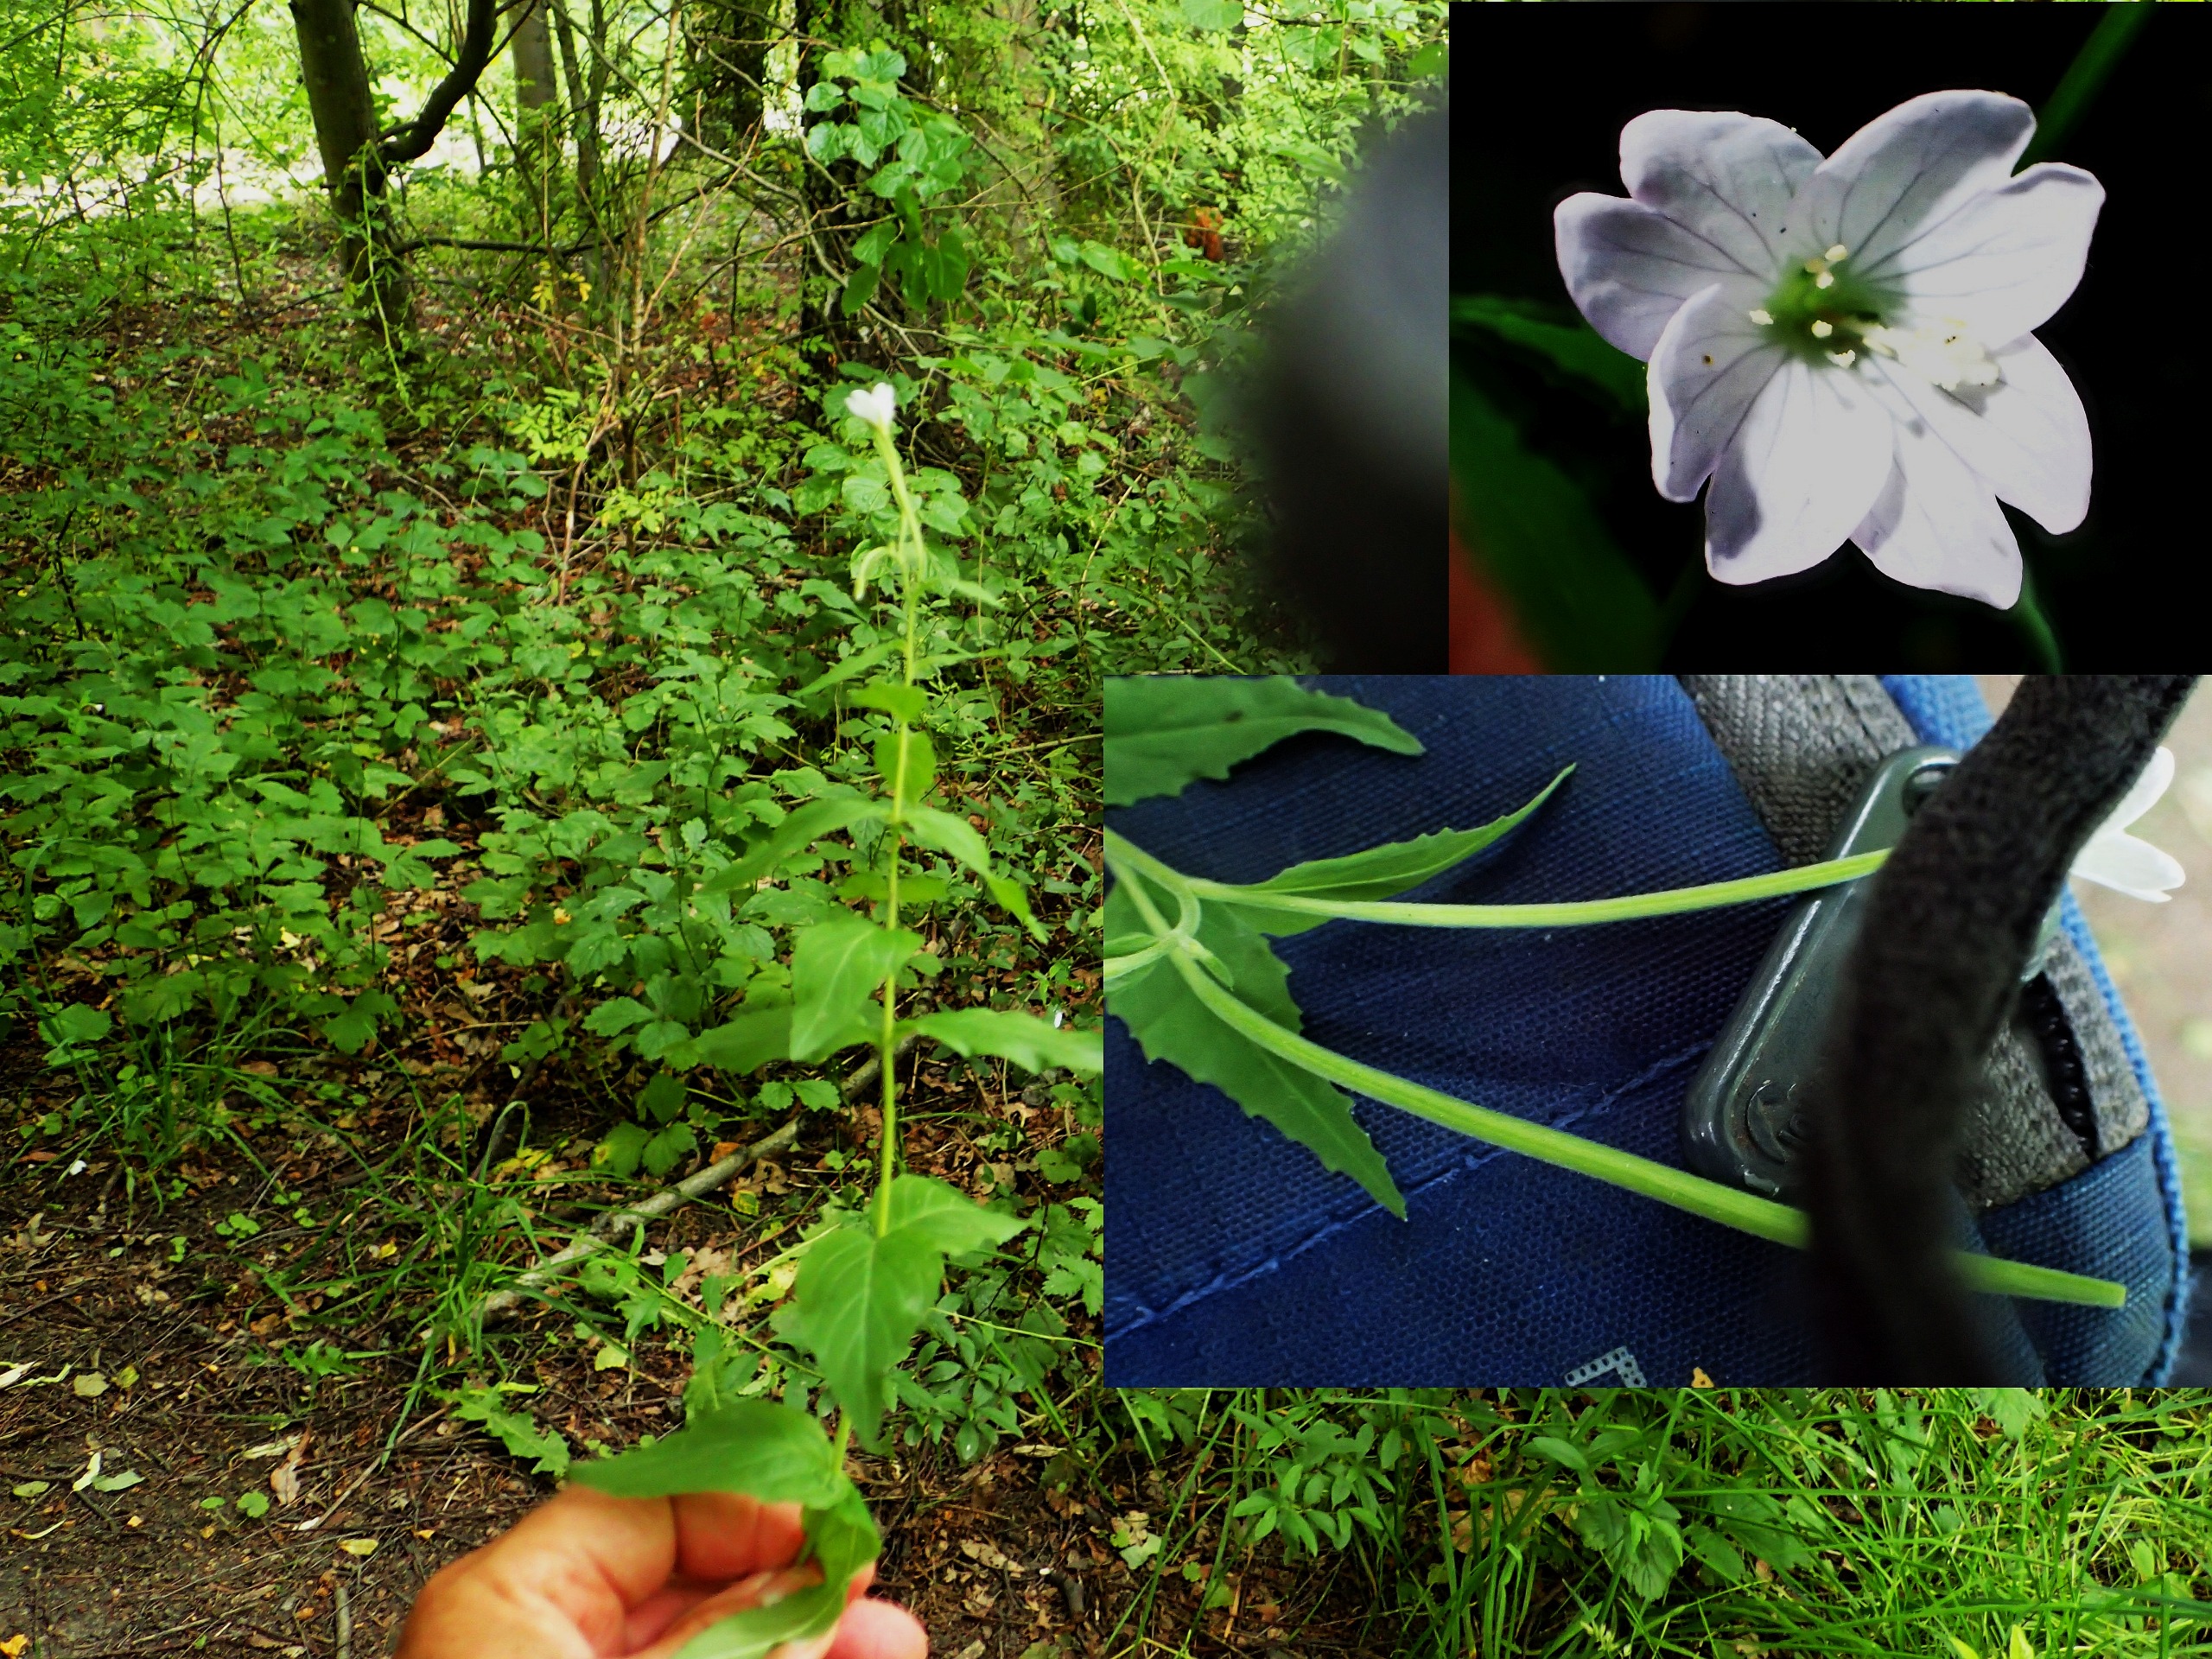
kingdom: Plantae
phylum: Tracheophyta
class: Magnoliopsida
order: Myrtales
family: Onagraceae
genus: Epilobium
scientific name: Epilobium montanum
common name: Glat dueurt
